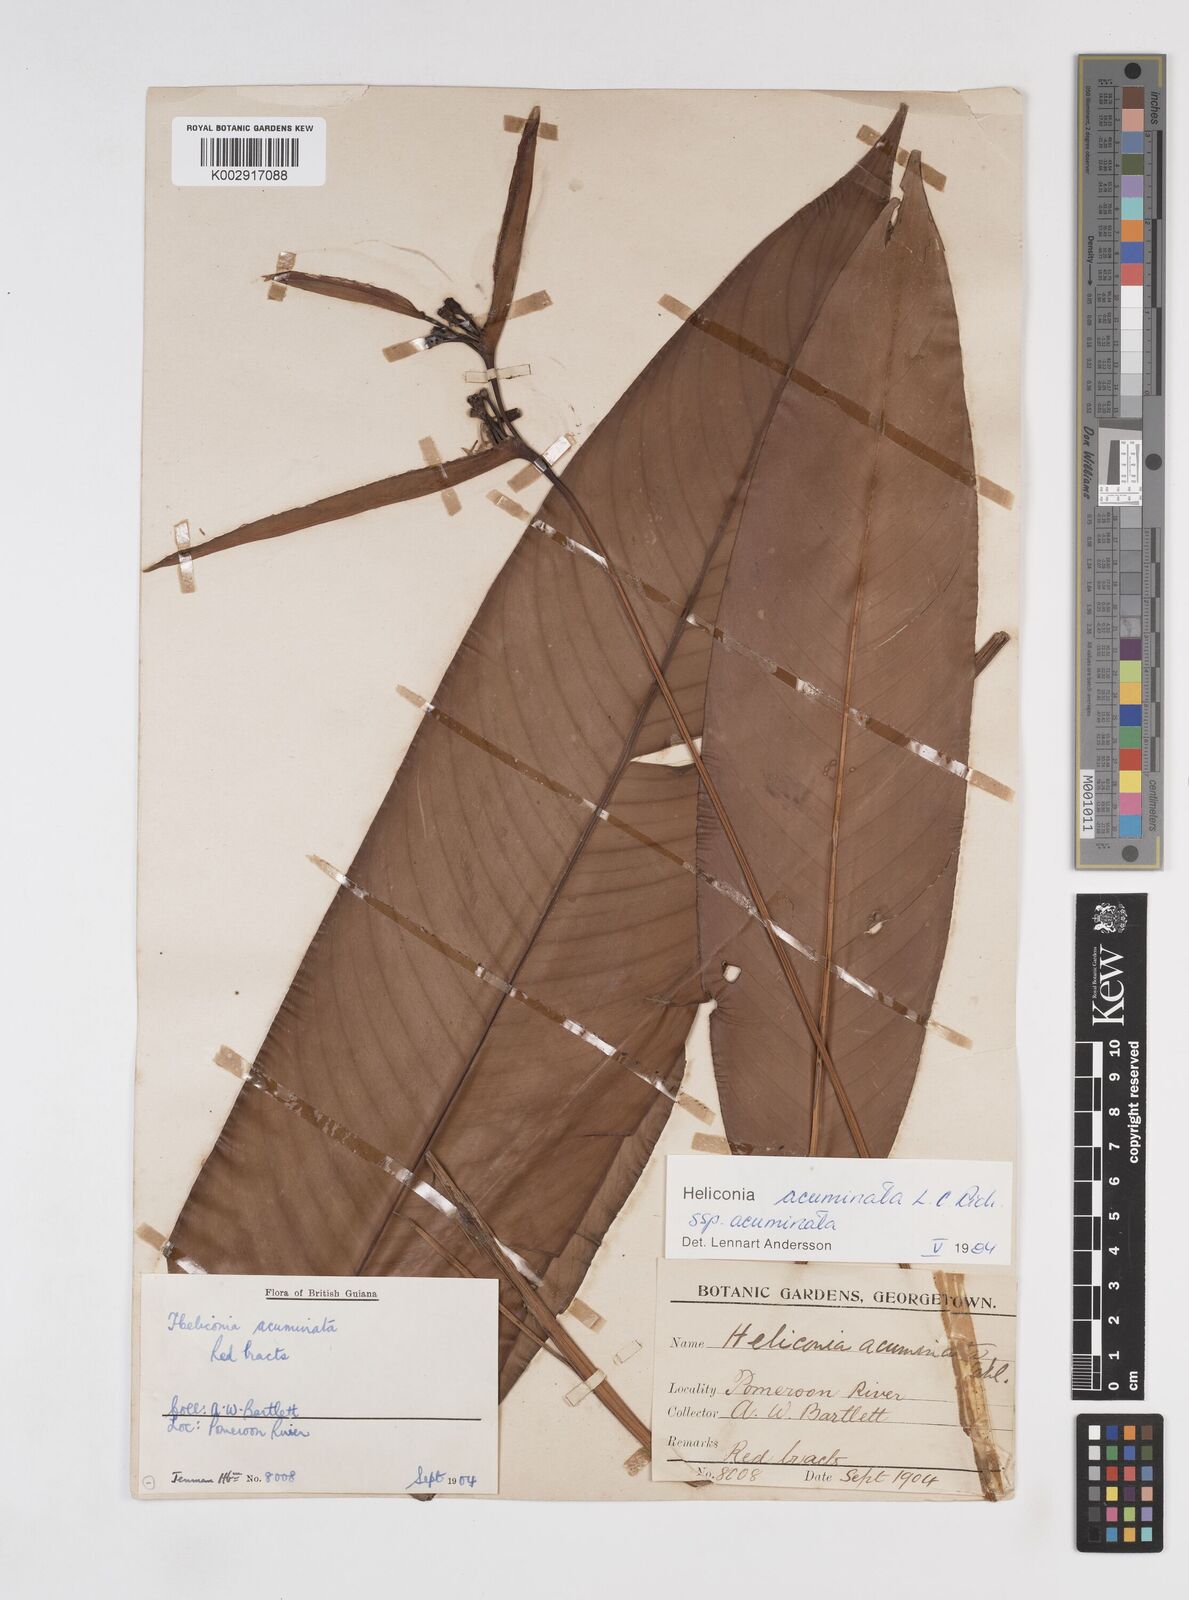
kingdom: Plantae
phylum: Tracheophyta
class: Liliopsida
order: Zingiberales
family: Heliconiaceae
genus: Heliconia
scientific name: Heliconia acuminata
